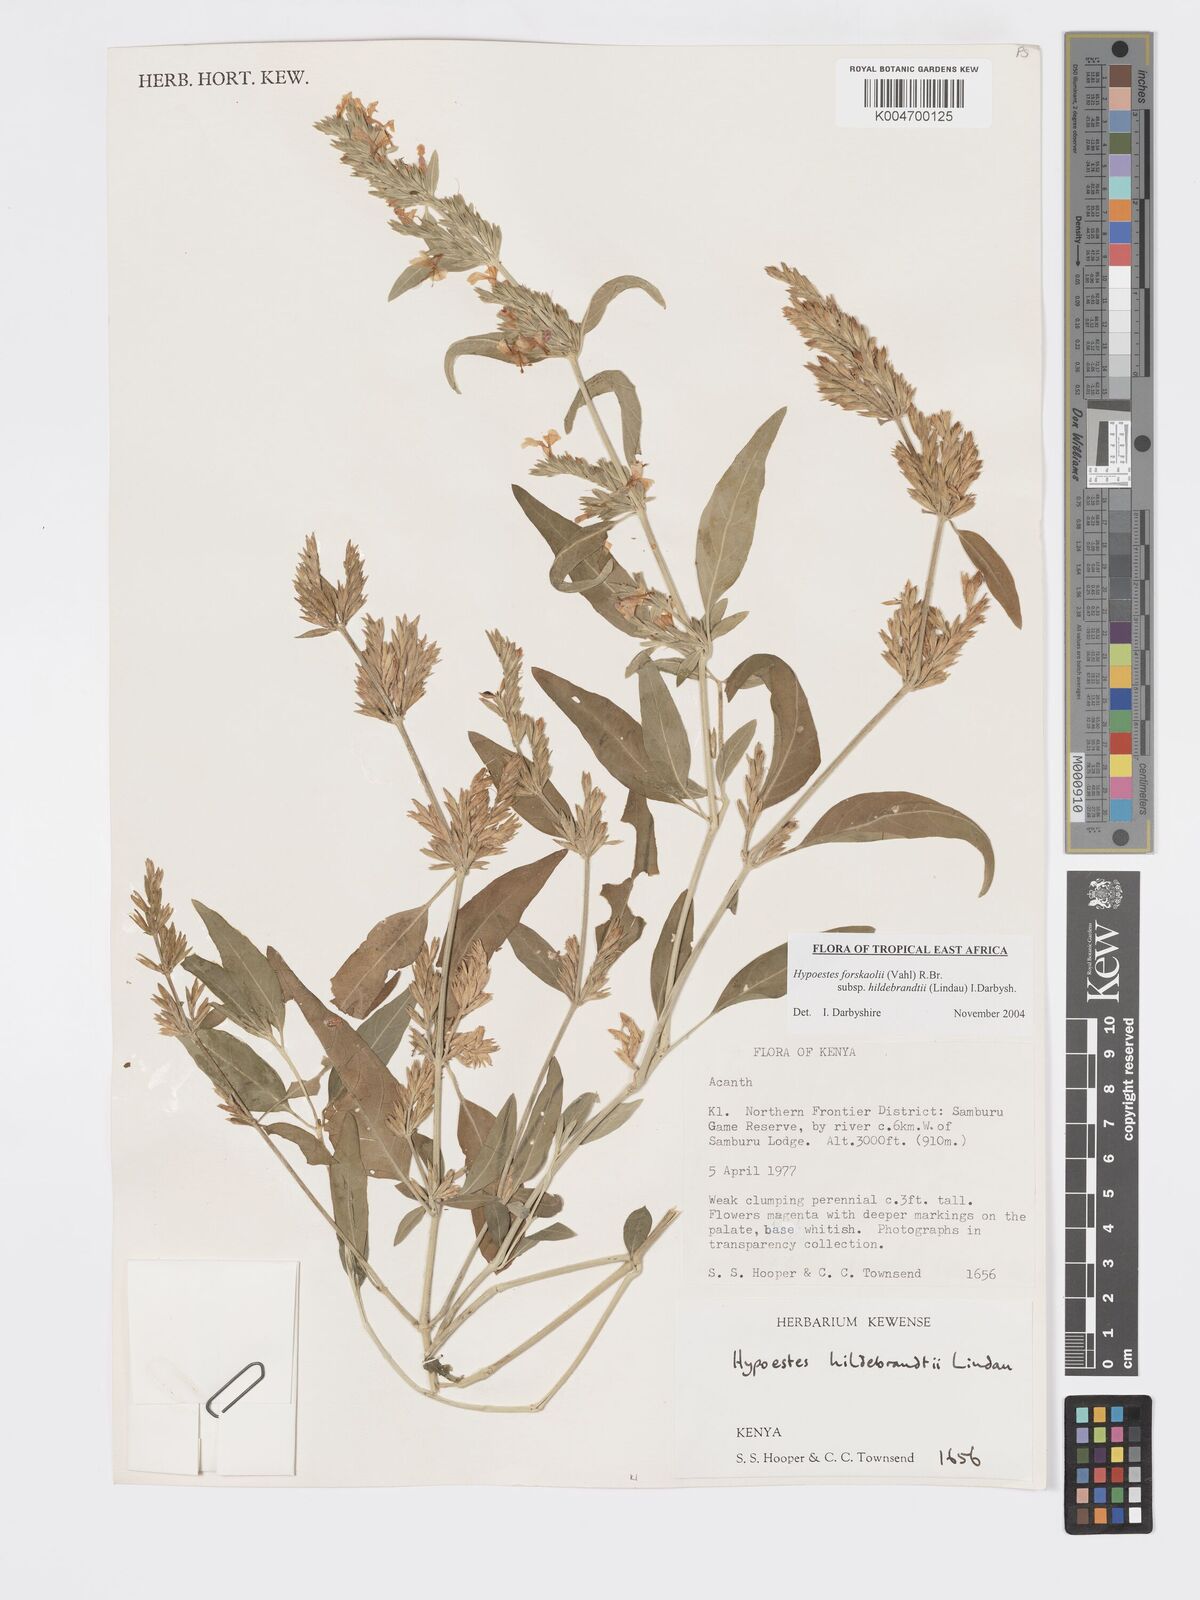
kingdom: Plantae
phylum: Tracheophyta
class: Magnoliopsida
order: Lamiales
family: Acanthaceae
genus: Hypoestes
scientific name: Hypoestes forskaolii
